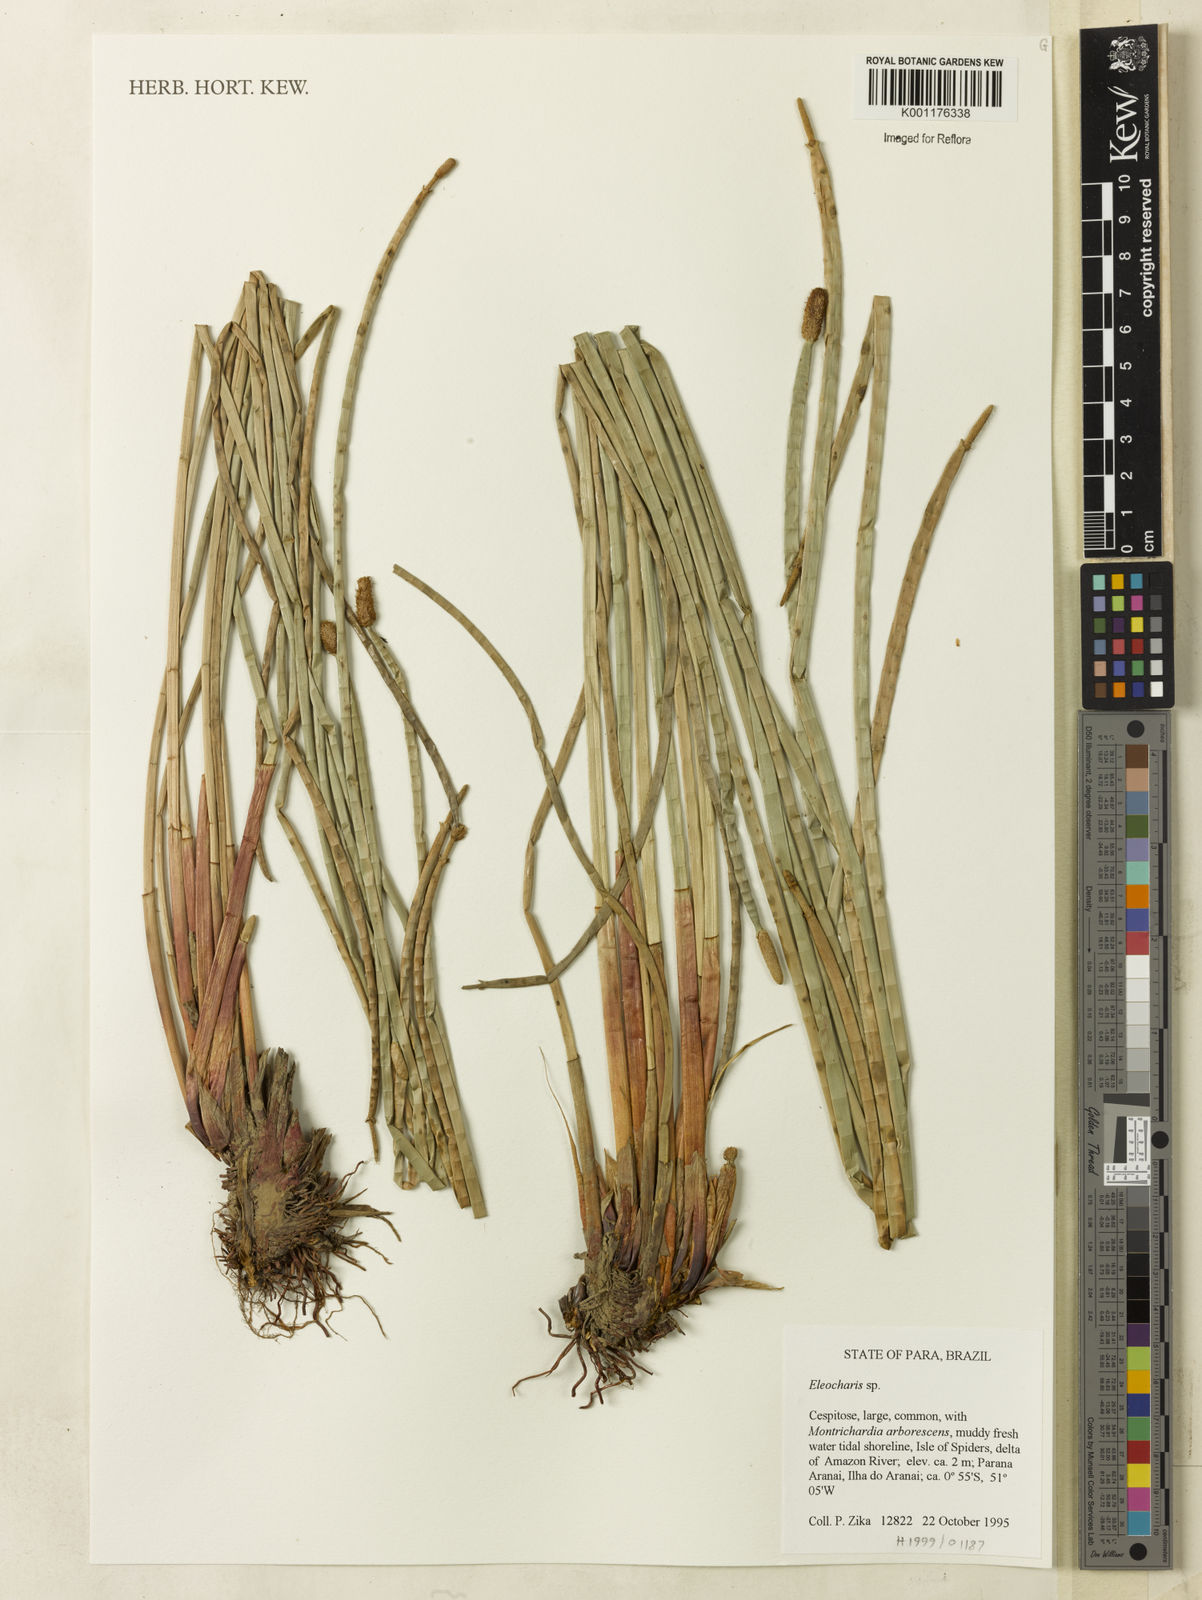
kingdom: Plantae
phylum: Tracheophyta
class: Liliopsida
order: Poales
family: Cyperaceae
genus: Eleocharis
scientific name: Eleocharis
